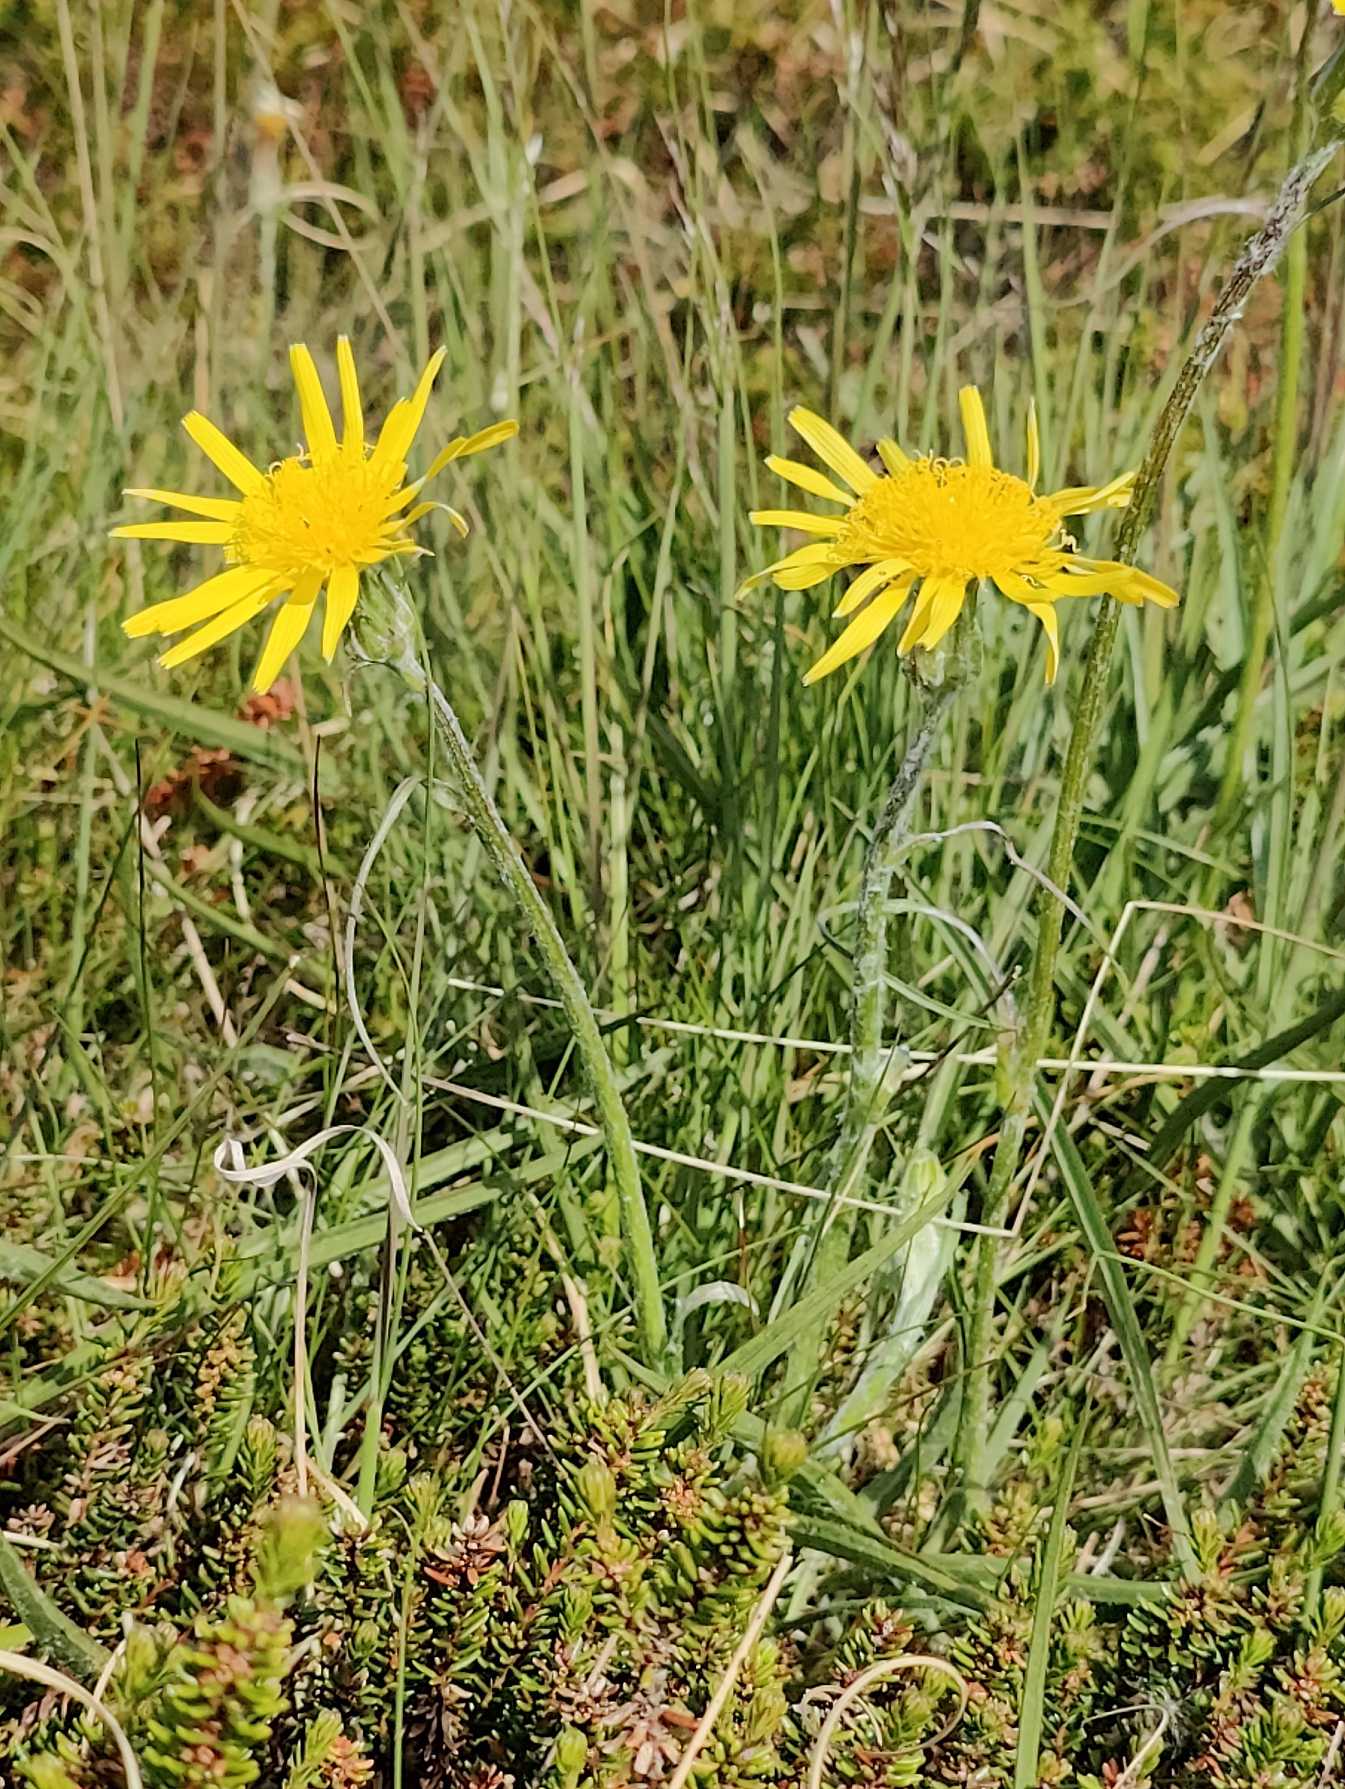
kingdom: Plantae
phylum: Tracheophyta
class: Magnoliopsida
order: Asterales
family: Asteraceae
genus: Scorzonera
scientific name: Scorzonera humilis
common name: Lav skorsoner
